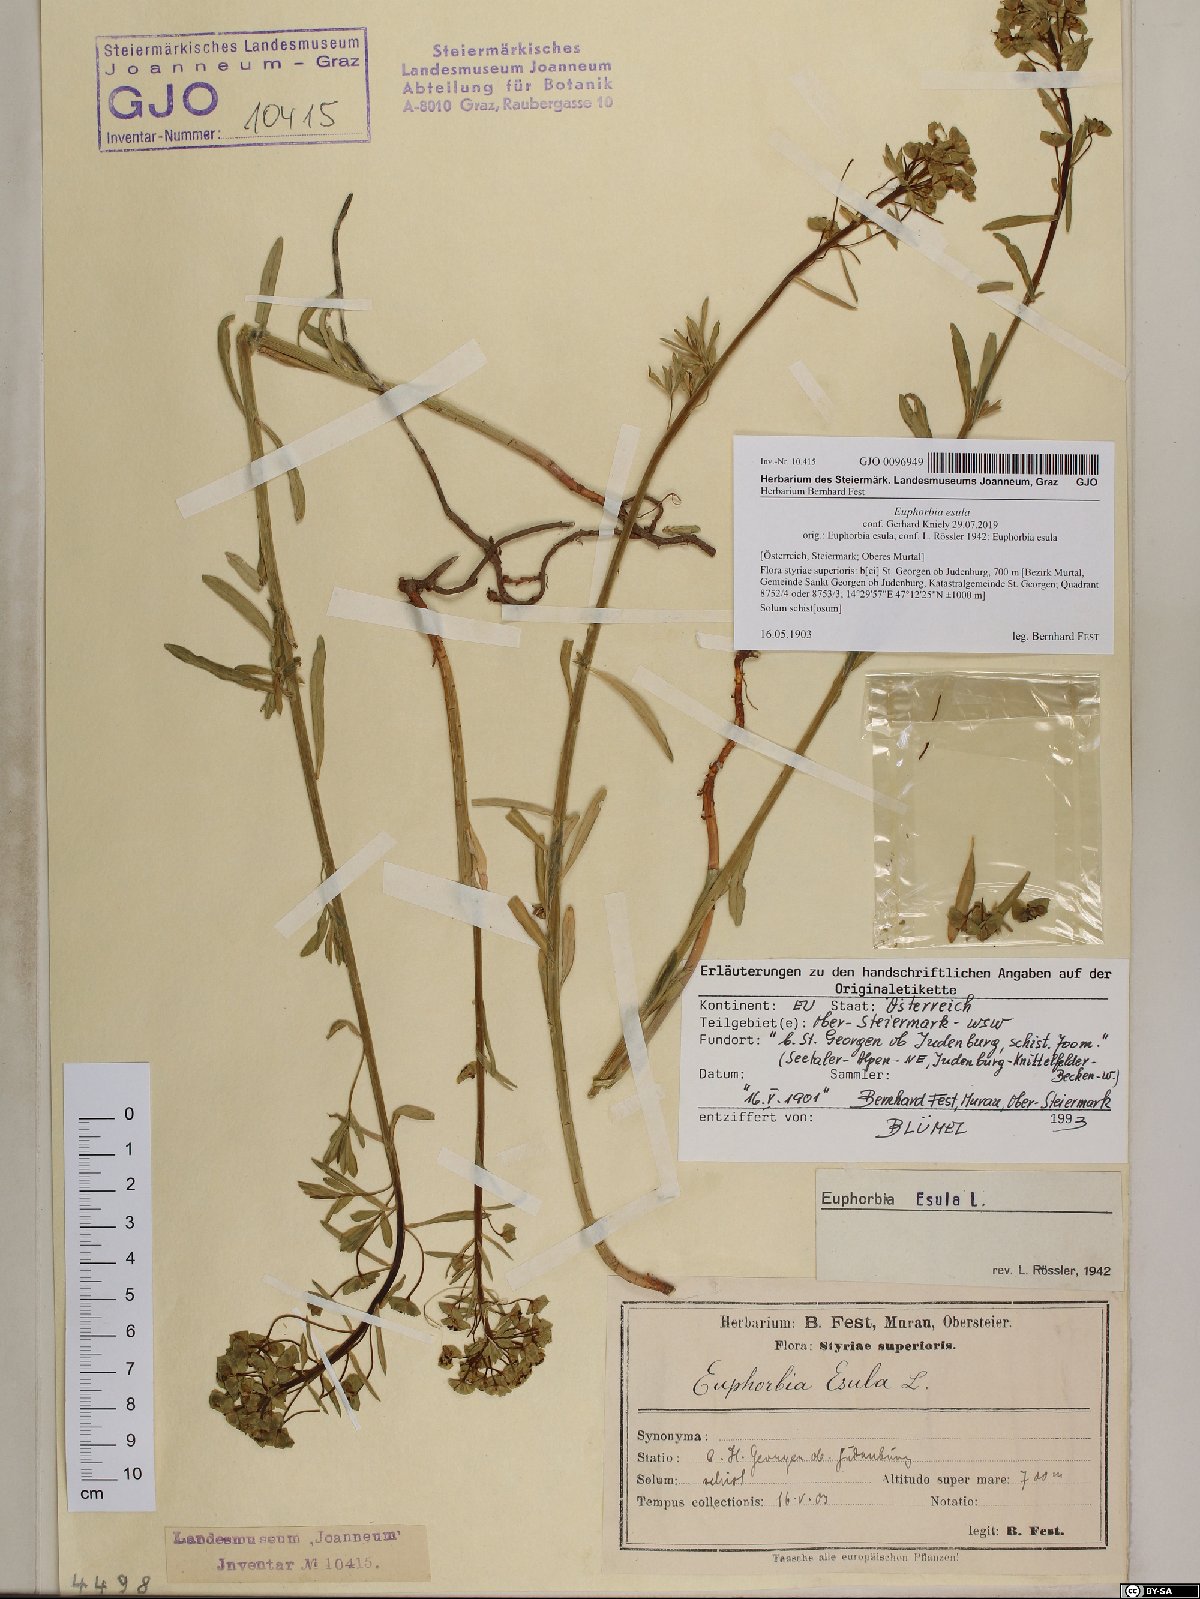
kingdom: Plantae
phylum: Tracheophyta
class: Magnoliopsida
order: Malpighiales
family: Euphorbiaceae
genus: Euphorbia
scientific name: Euphorbia esula
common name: Leafy spurge
